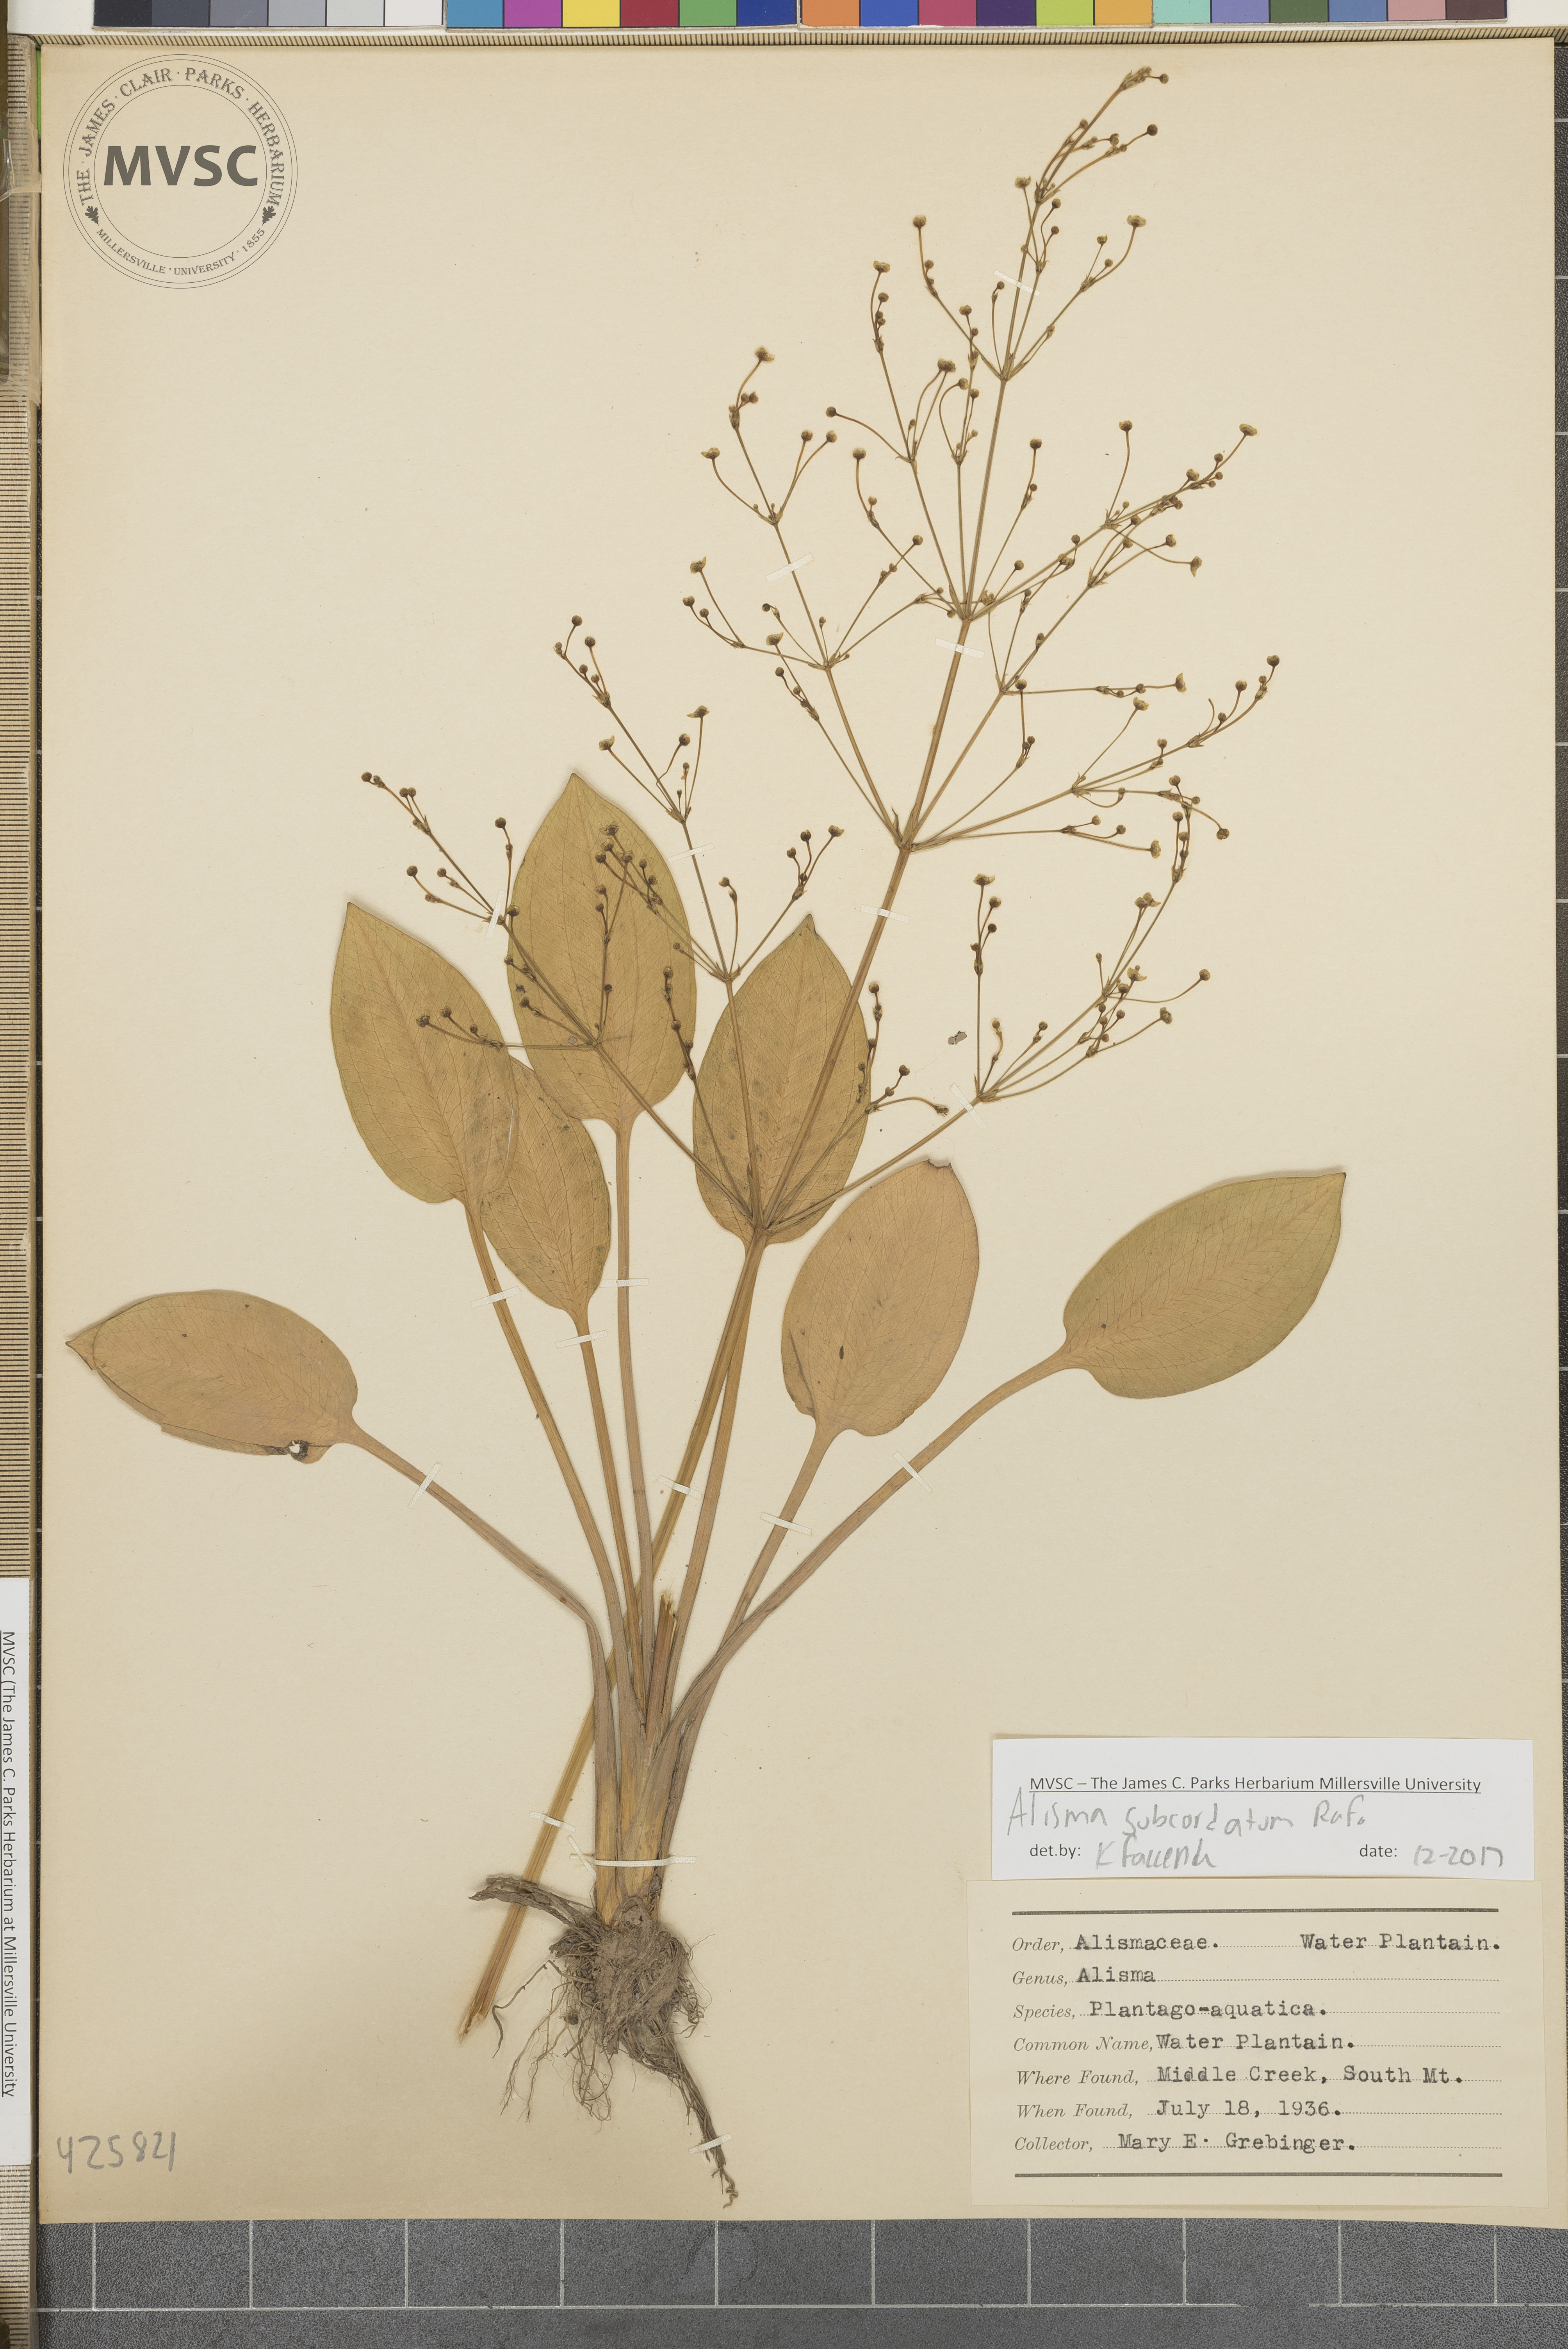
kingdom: Plantae
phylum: Tracheophyta
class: Liliopsida
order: Alismatales
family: Alismataceae
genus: Alisma
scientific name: Alisma subcordatum
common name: Water Plantain
